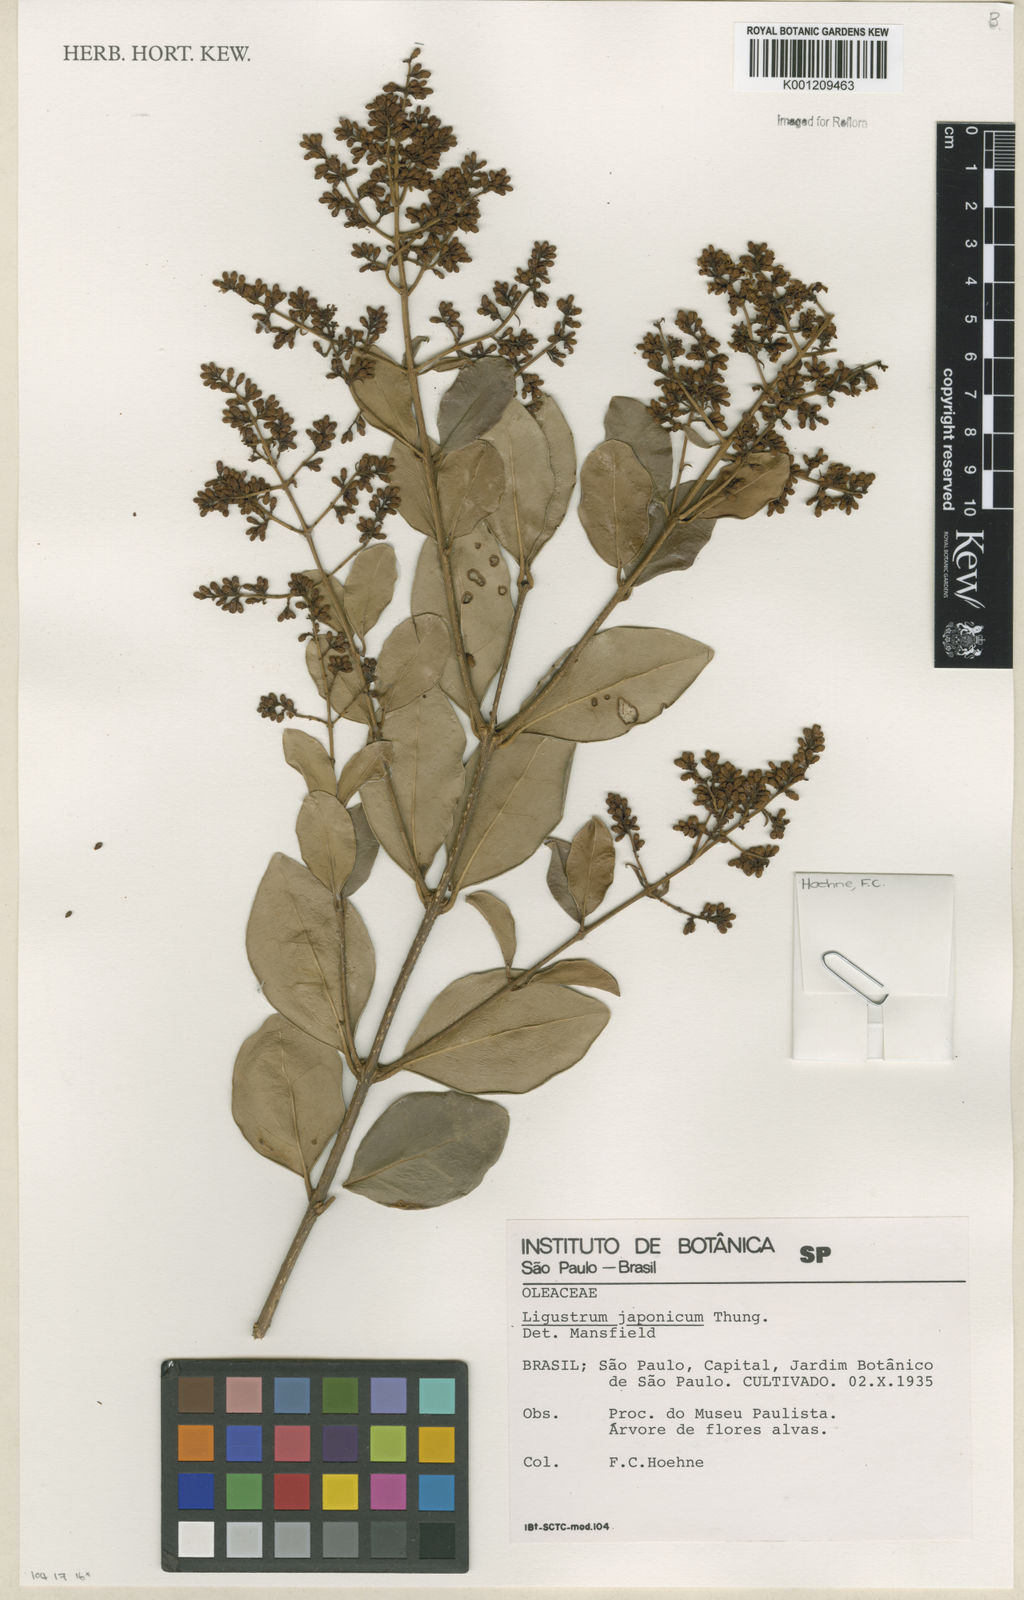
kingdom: Plantae
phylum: Tracheophyta
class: Magnoliopsida
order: Lamiales
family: Oleaceae
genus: Ligustrum
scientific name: Ligustrum japonicum
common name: Japanese privet
